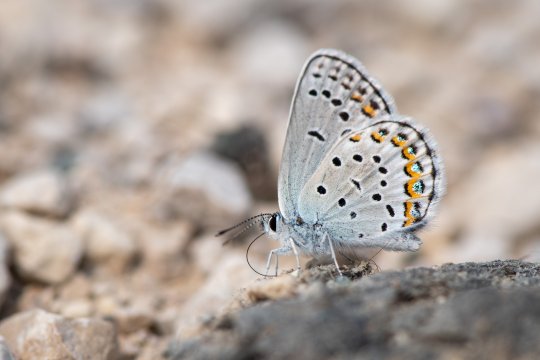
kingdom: Animalia
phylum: Arthropoda
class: Insecta
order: Lepidoptera
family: Lycaenidae
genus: Lycaeides
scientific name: Lycaeides idas
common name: Northern Blue
